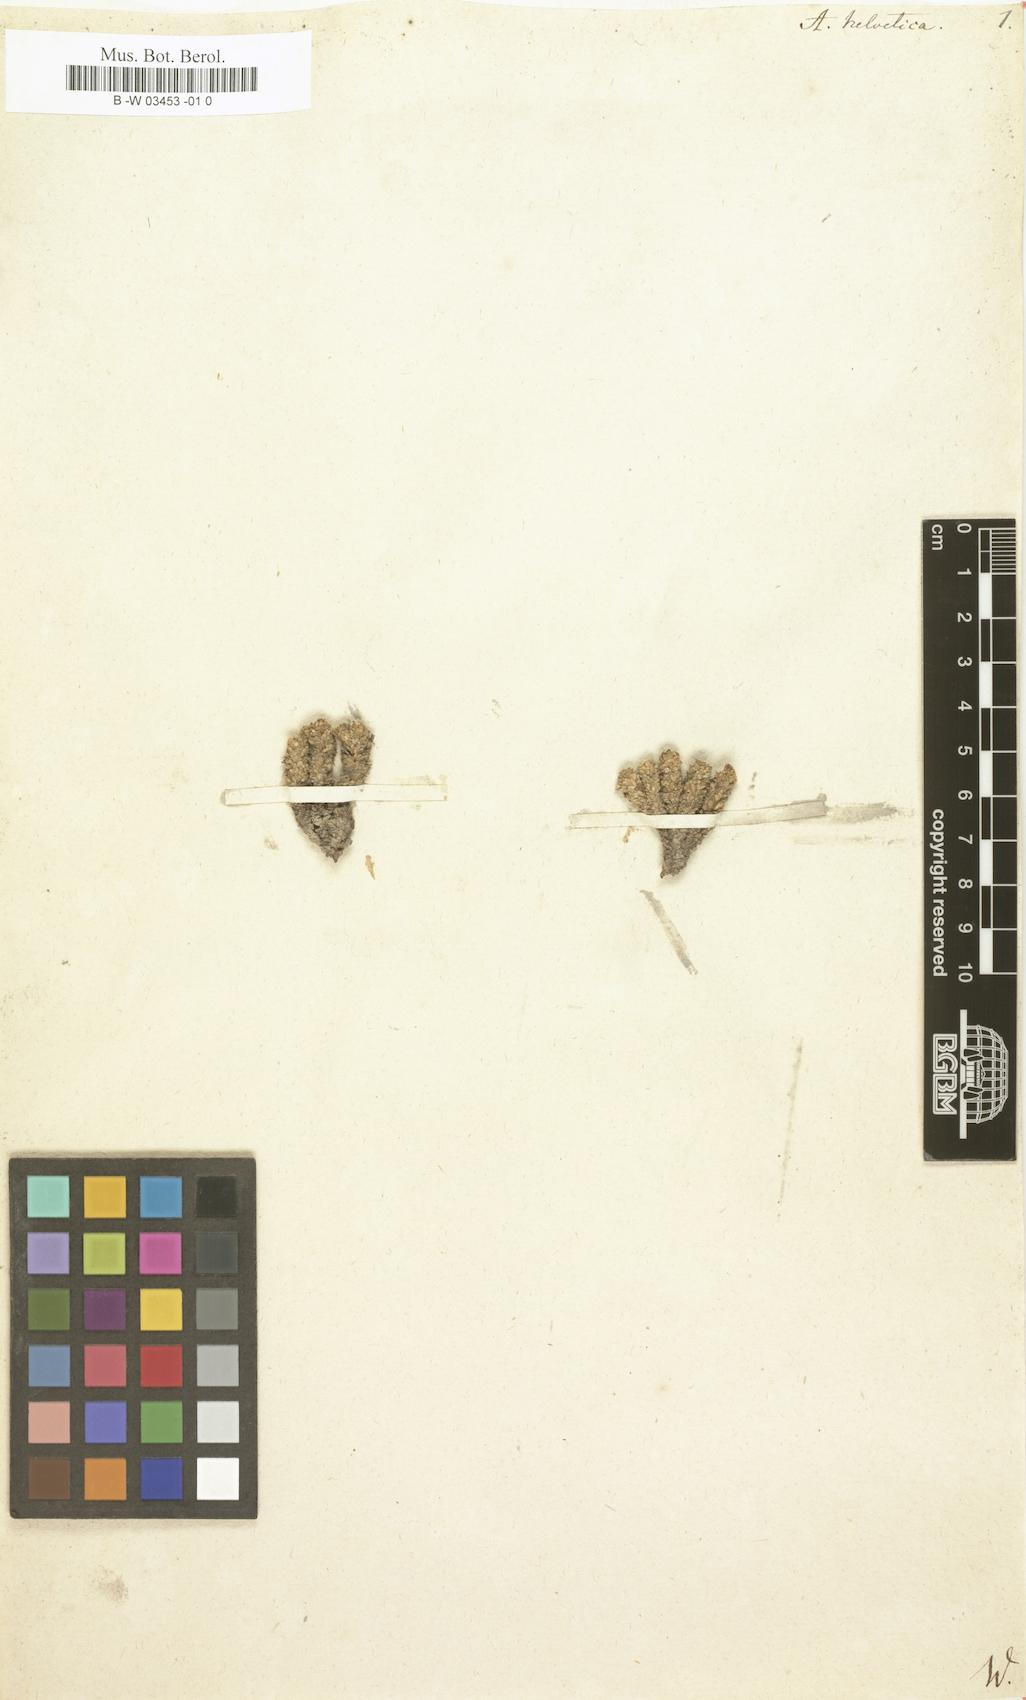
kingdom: Plantae
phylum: Tracheophyta
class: Magnoliopsida
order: Ericales
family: Primulaceae
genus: Androsace
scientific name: Androsace helvetica
